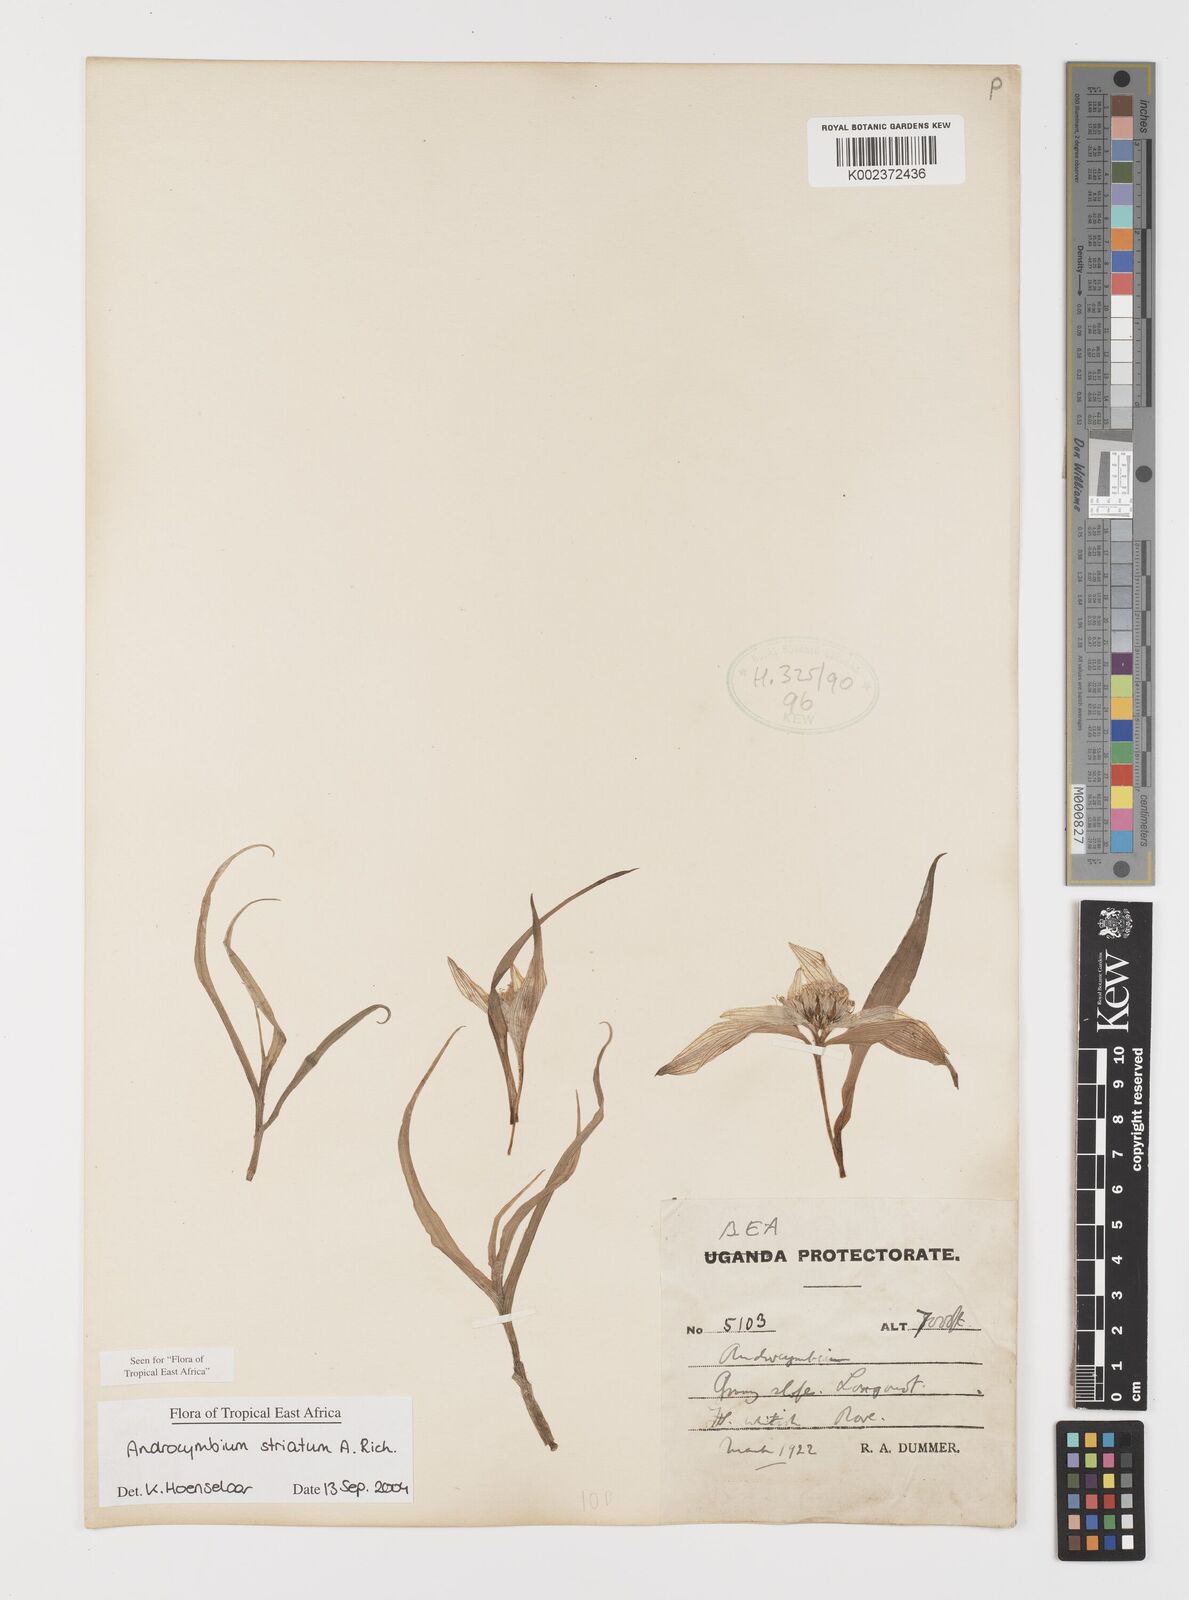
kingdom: Plantae
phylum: Tracheophyta
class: Liliopsida
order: Liliales
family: Colchicaceae
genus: Colchicum
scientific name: Colchicum striatum
